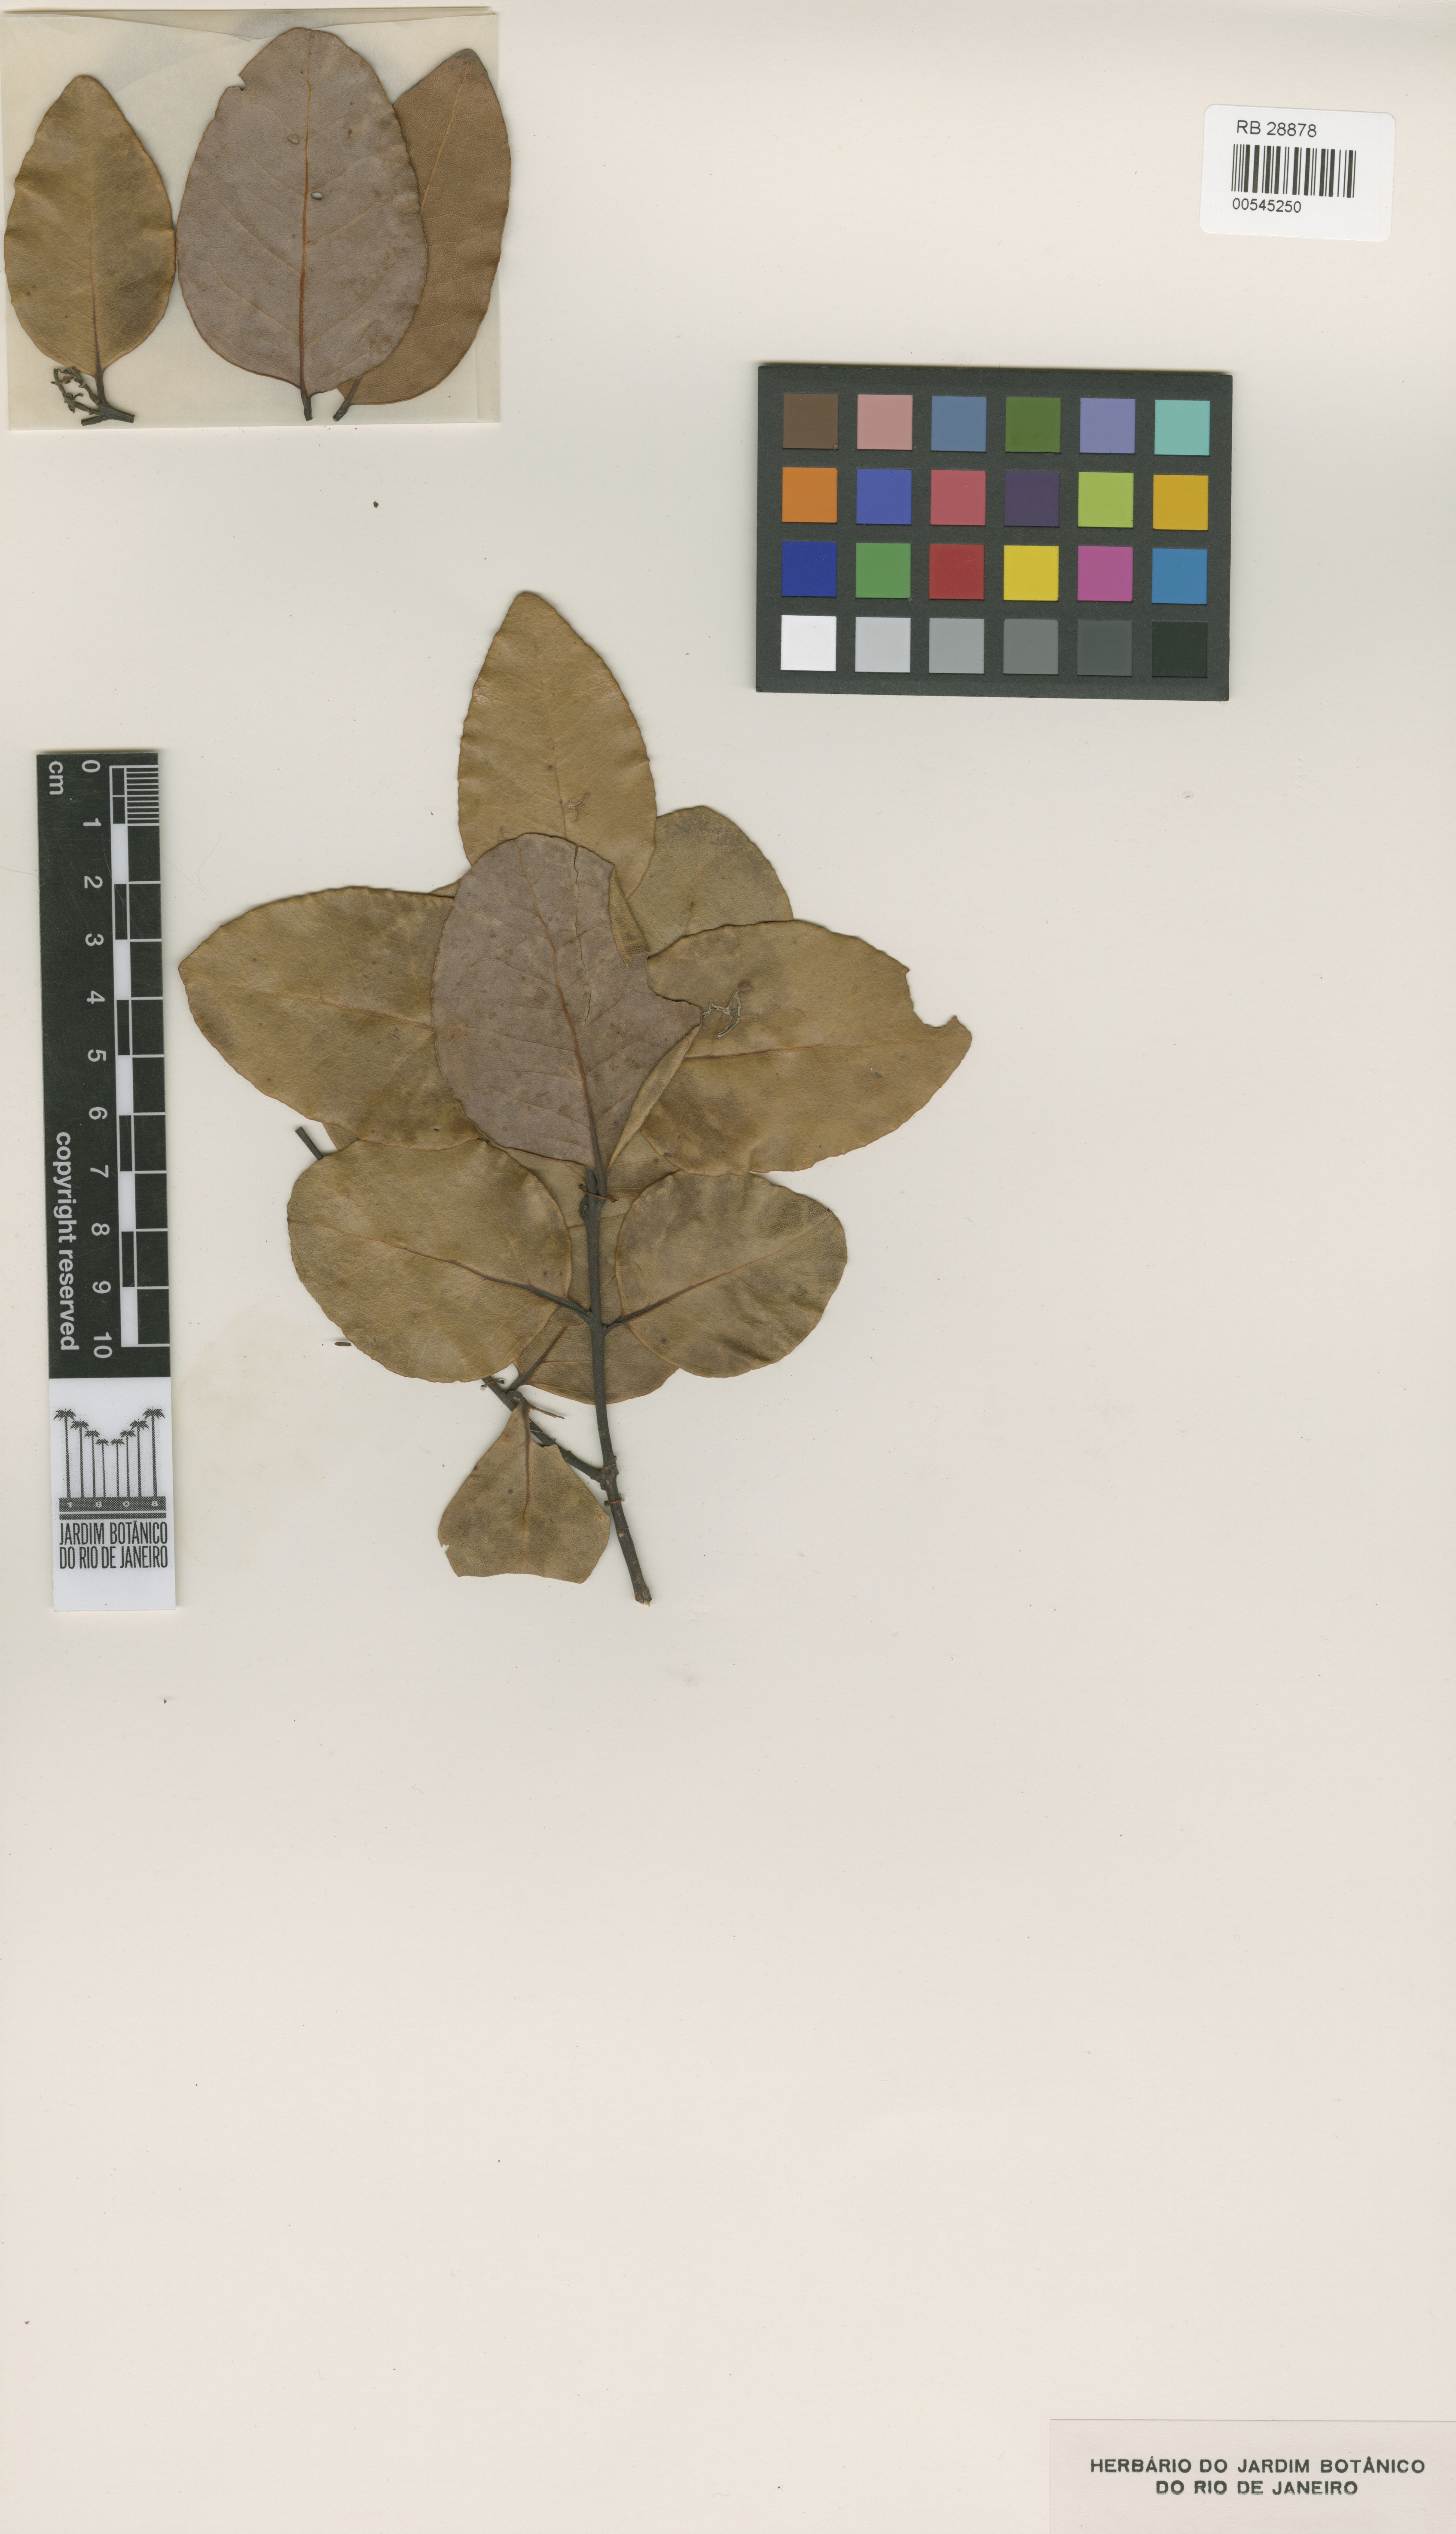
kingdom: Plantae
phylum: Tracheophyta
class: Magnoliopsida
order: Laurales
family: Lauraceae
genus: Cryptocarya
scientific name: Cryptocarya rubra
